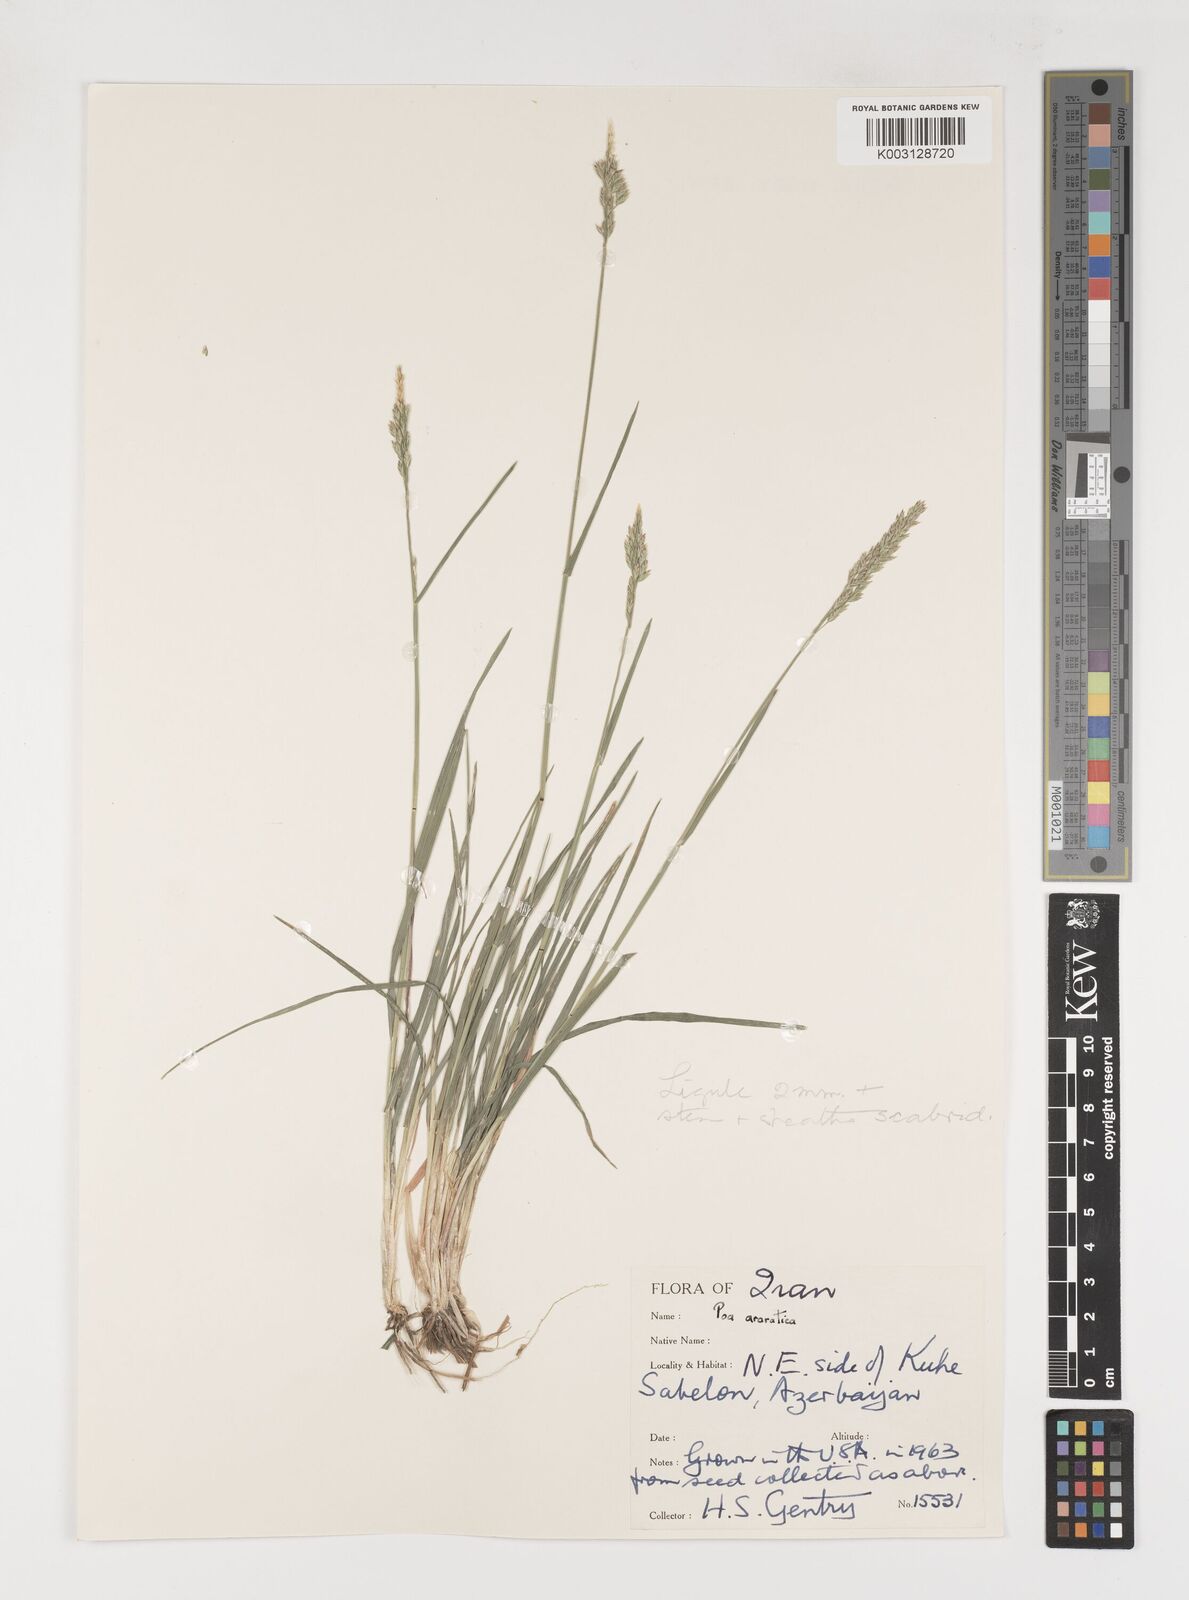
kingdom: Plantae
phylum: Tracheophyta
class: Liliopsida
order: Poales
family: Poaceae
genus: Poa
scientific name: Poa araratica
